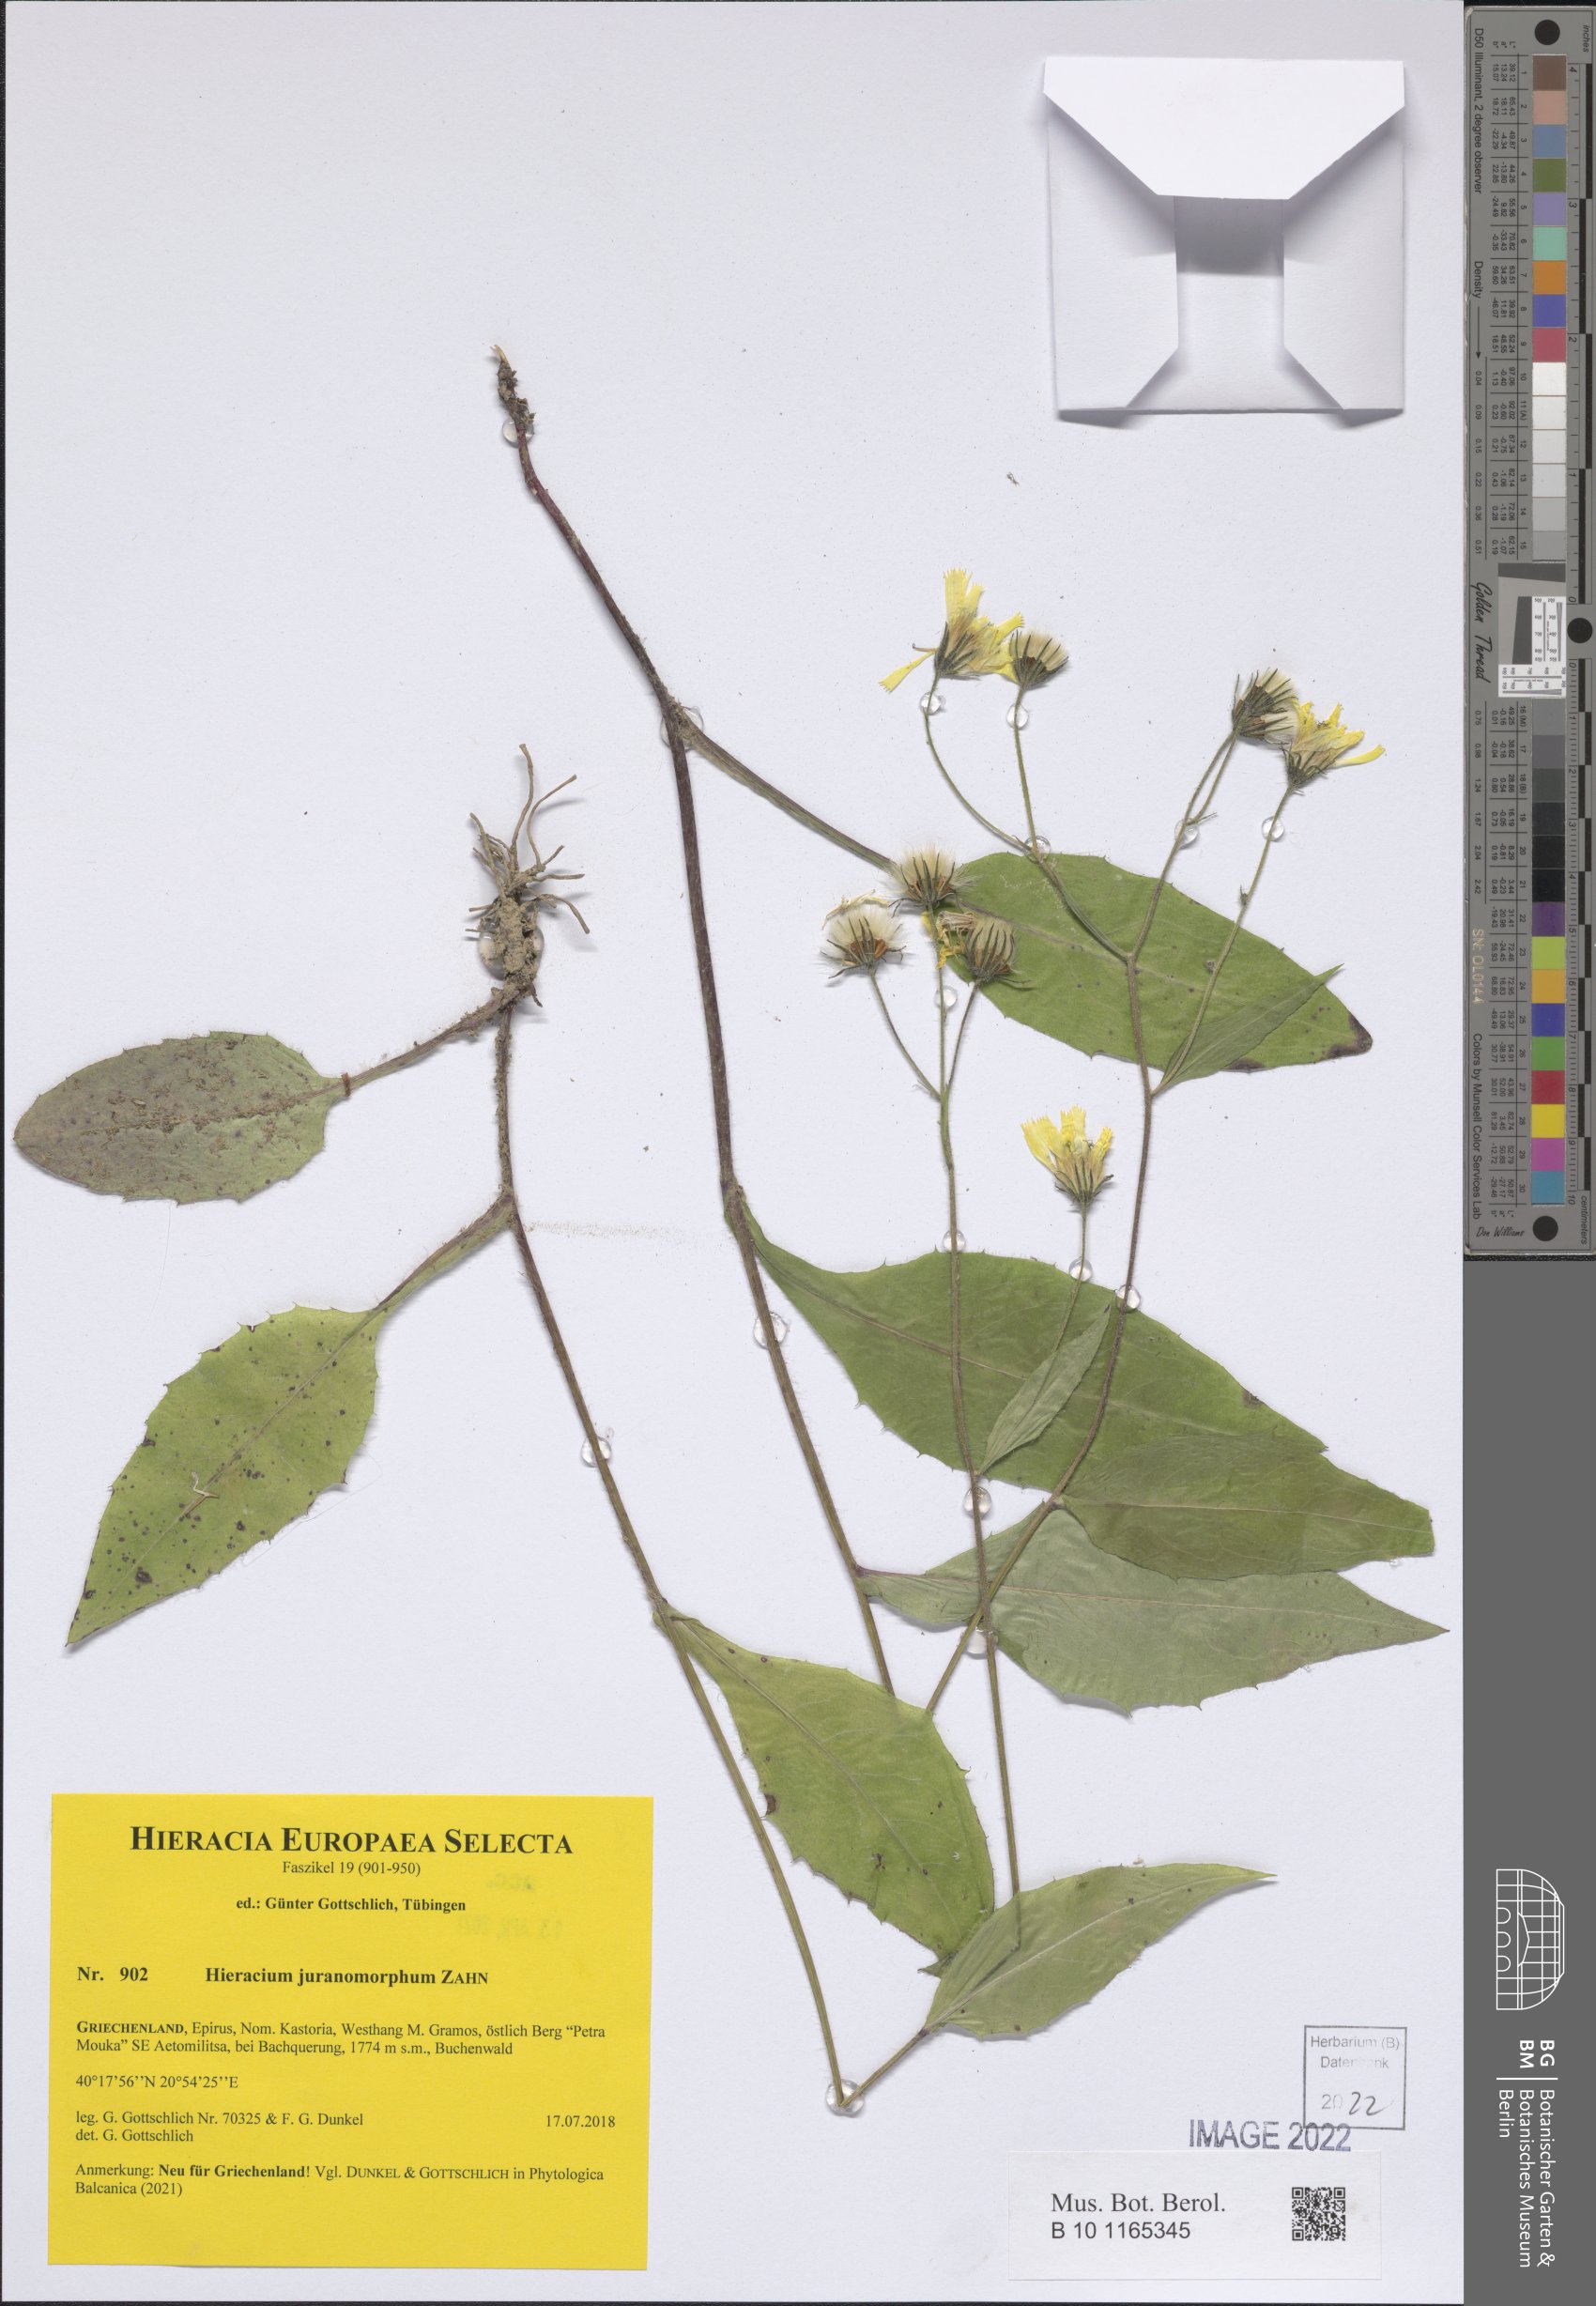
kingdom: Plantae
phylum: Tracheophyta
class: Magnoliopsida
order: Asterales
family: Asteraceae
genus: Hieracium
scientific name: Hieracium medschedsense
